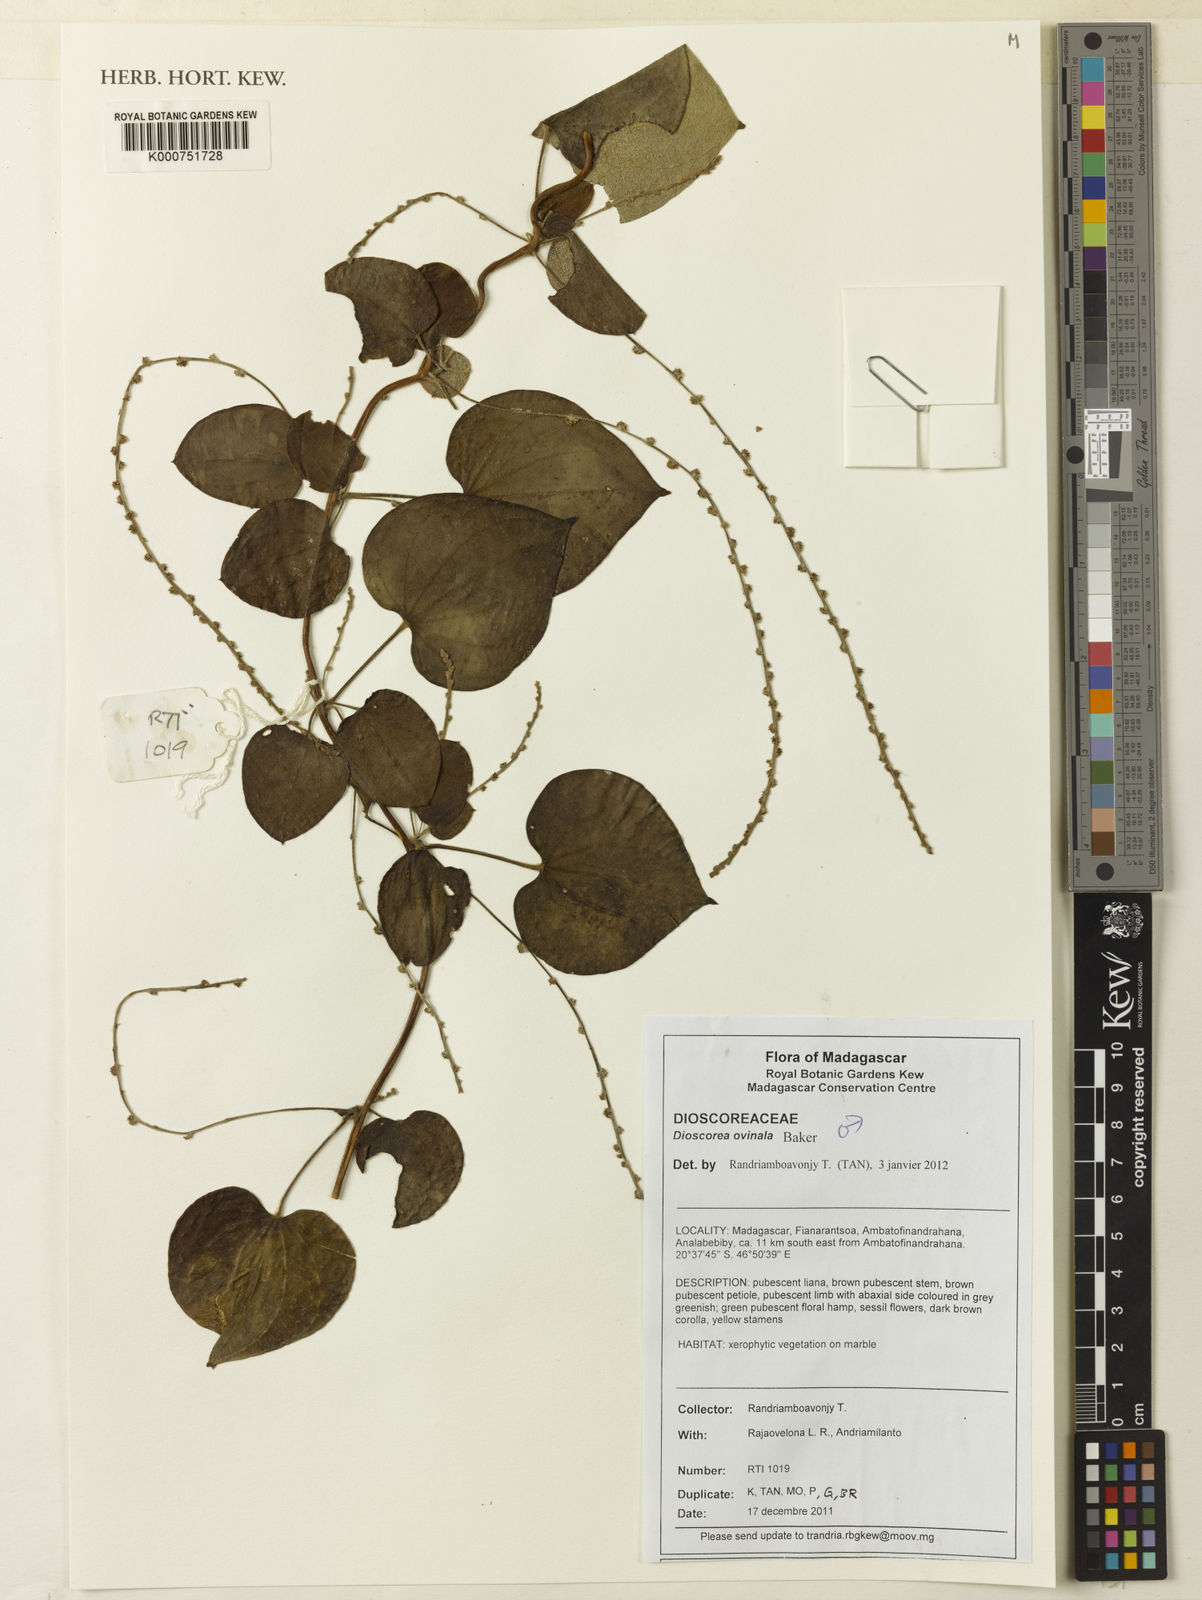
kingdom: Plantae
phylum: Tracheophyta
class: Liliopsida
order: Dioscoreales
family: Dioscoreaceae
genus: Dioscorea
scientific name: Dioscorea ovinala
